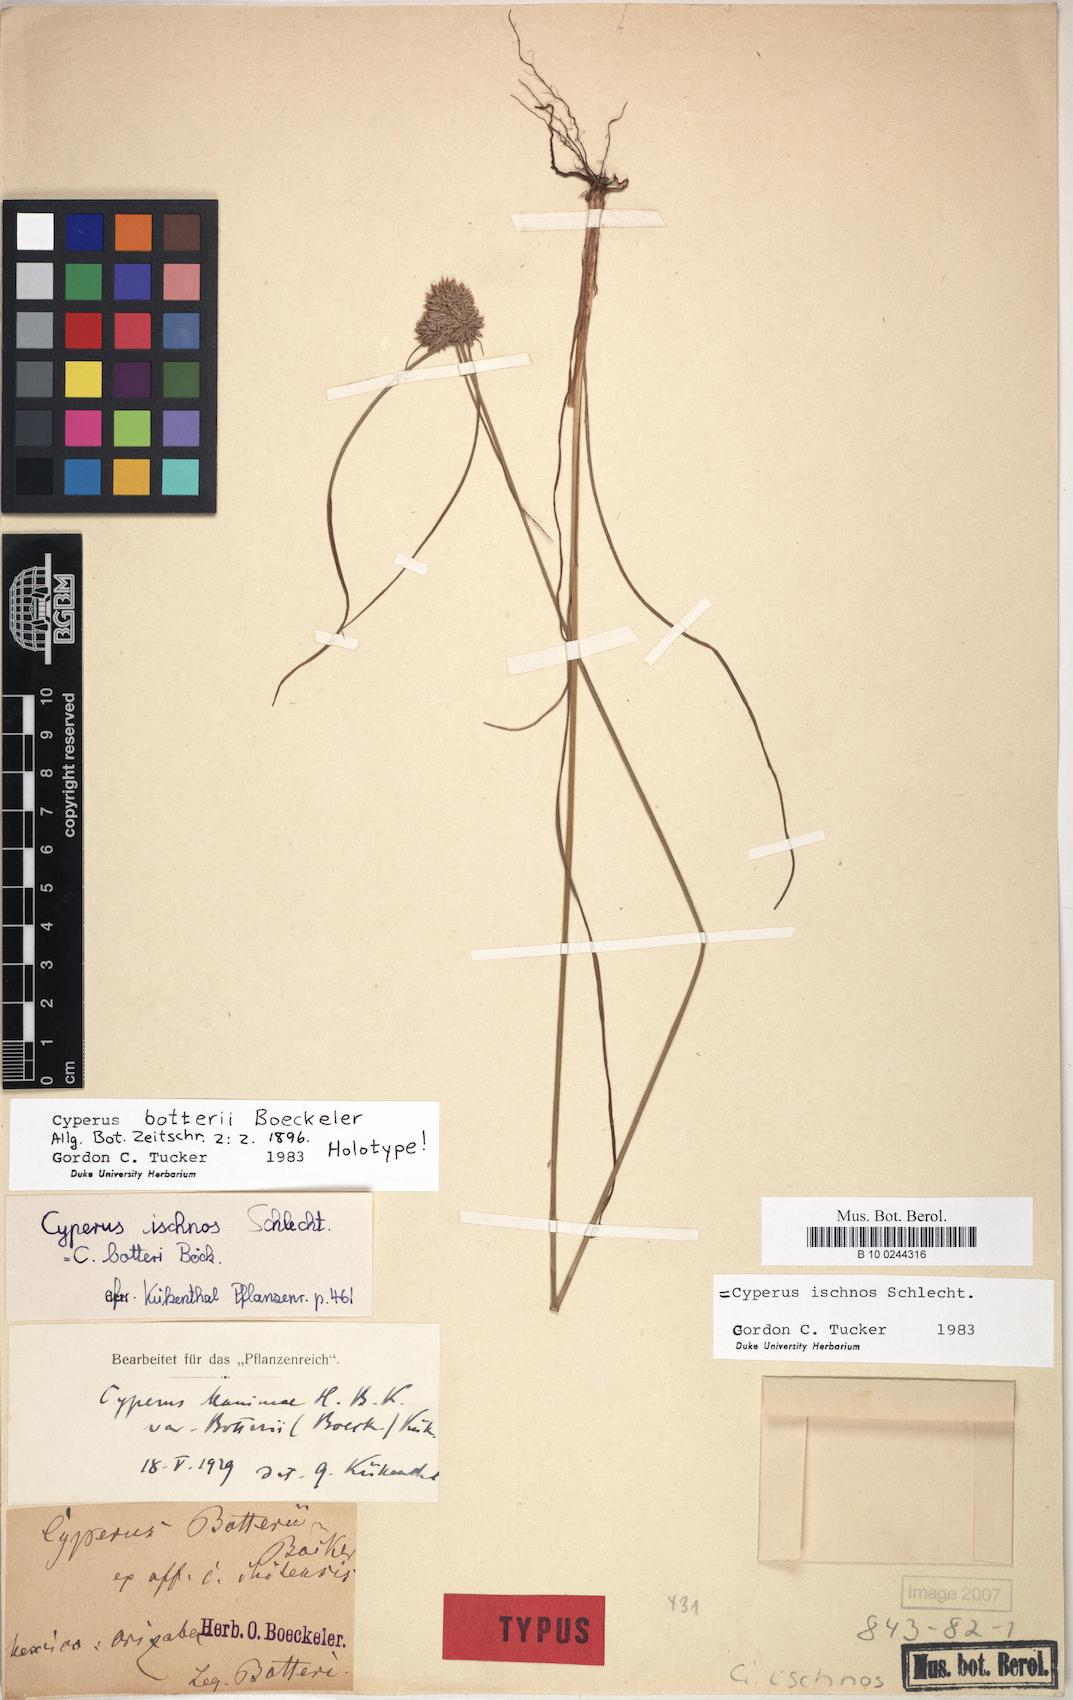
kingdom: Plantae
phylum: Tracheophyta
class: Liliopsida
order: Poales
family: Cyperaceae
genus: Cyperus
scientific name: Cyperus ischnos
